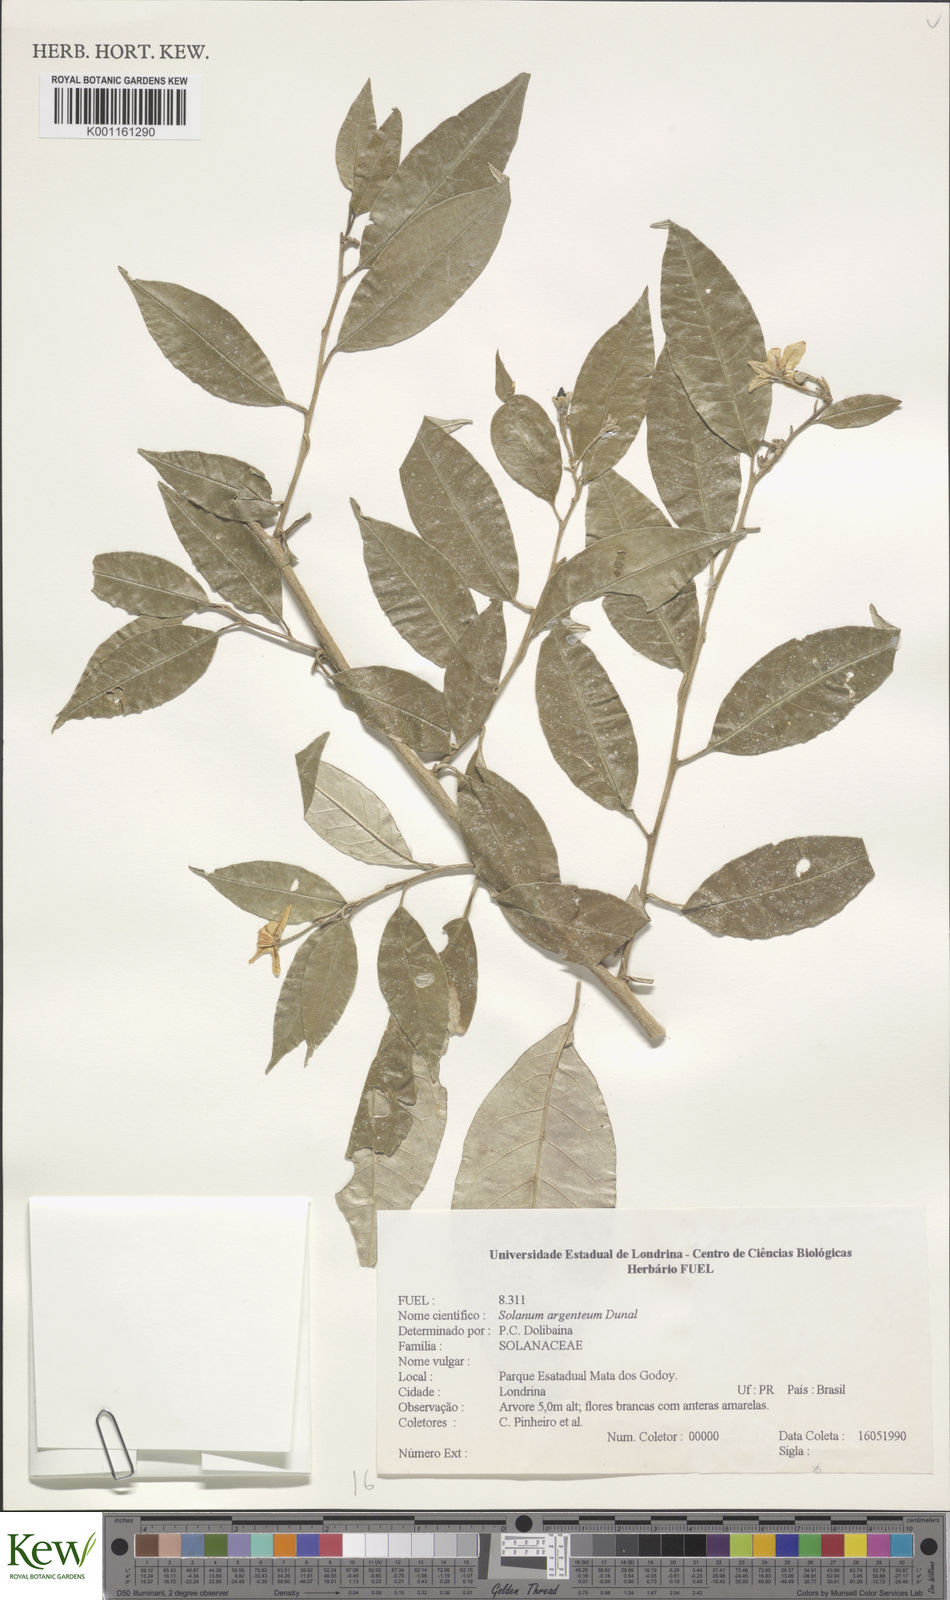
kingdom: Plantae
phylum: Tracheophyta
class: Magnoliopsida
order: Solanales
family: Solanaceae
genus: Solanum
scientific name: Solanum swartzianum
